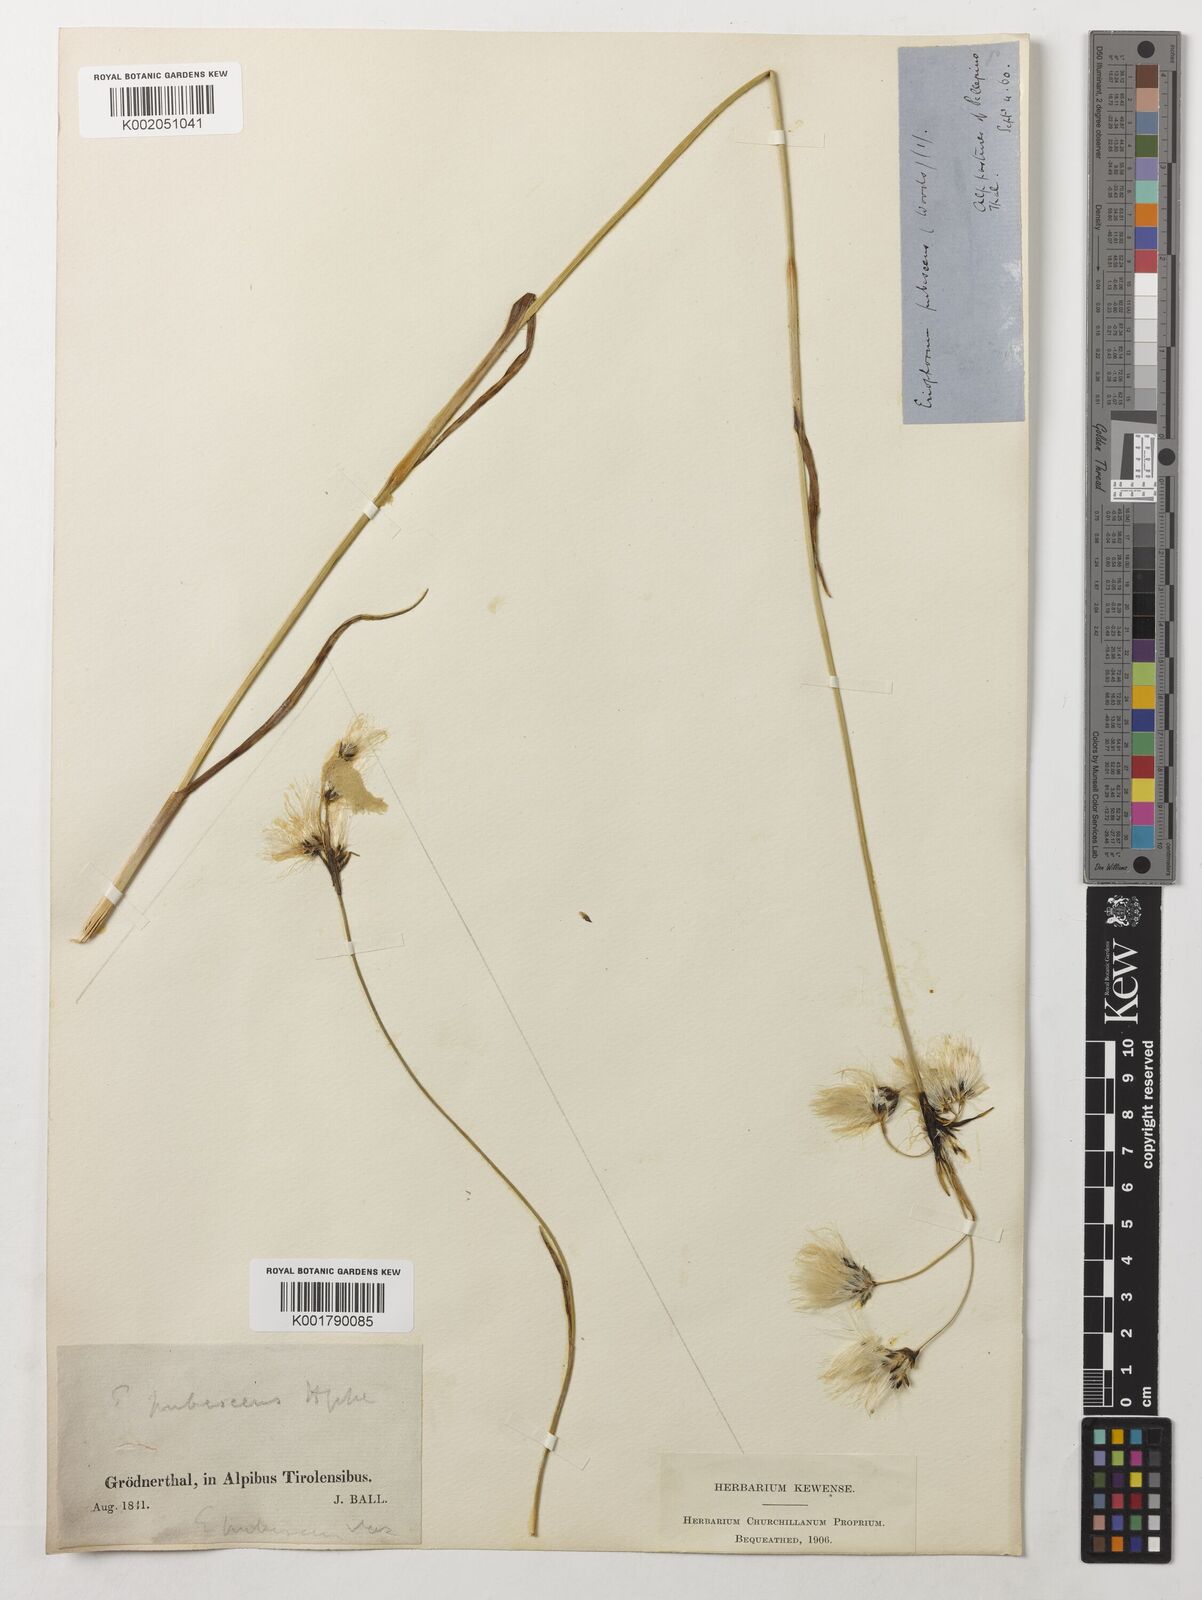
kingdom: Plantae
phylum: Tracheophyta
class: Liliopsida
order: Poales
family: Cyperaceae
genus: Eriophorum
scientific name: Eriophorum latifolium
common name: Broad-leaved cottongrass
